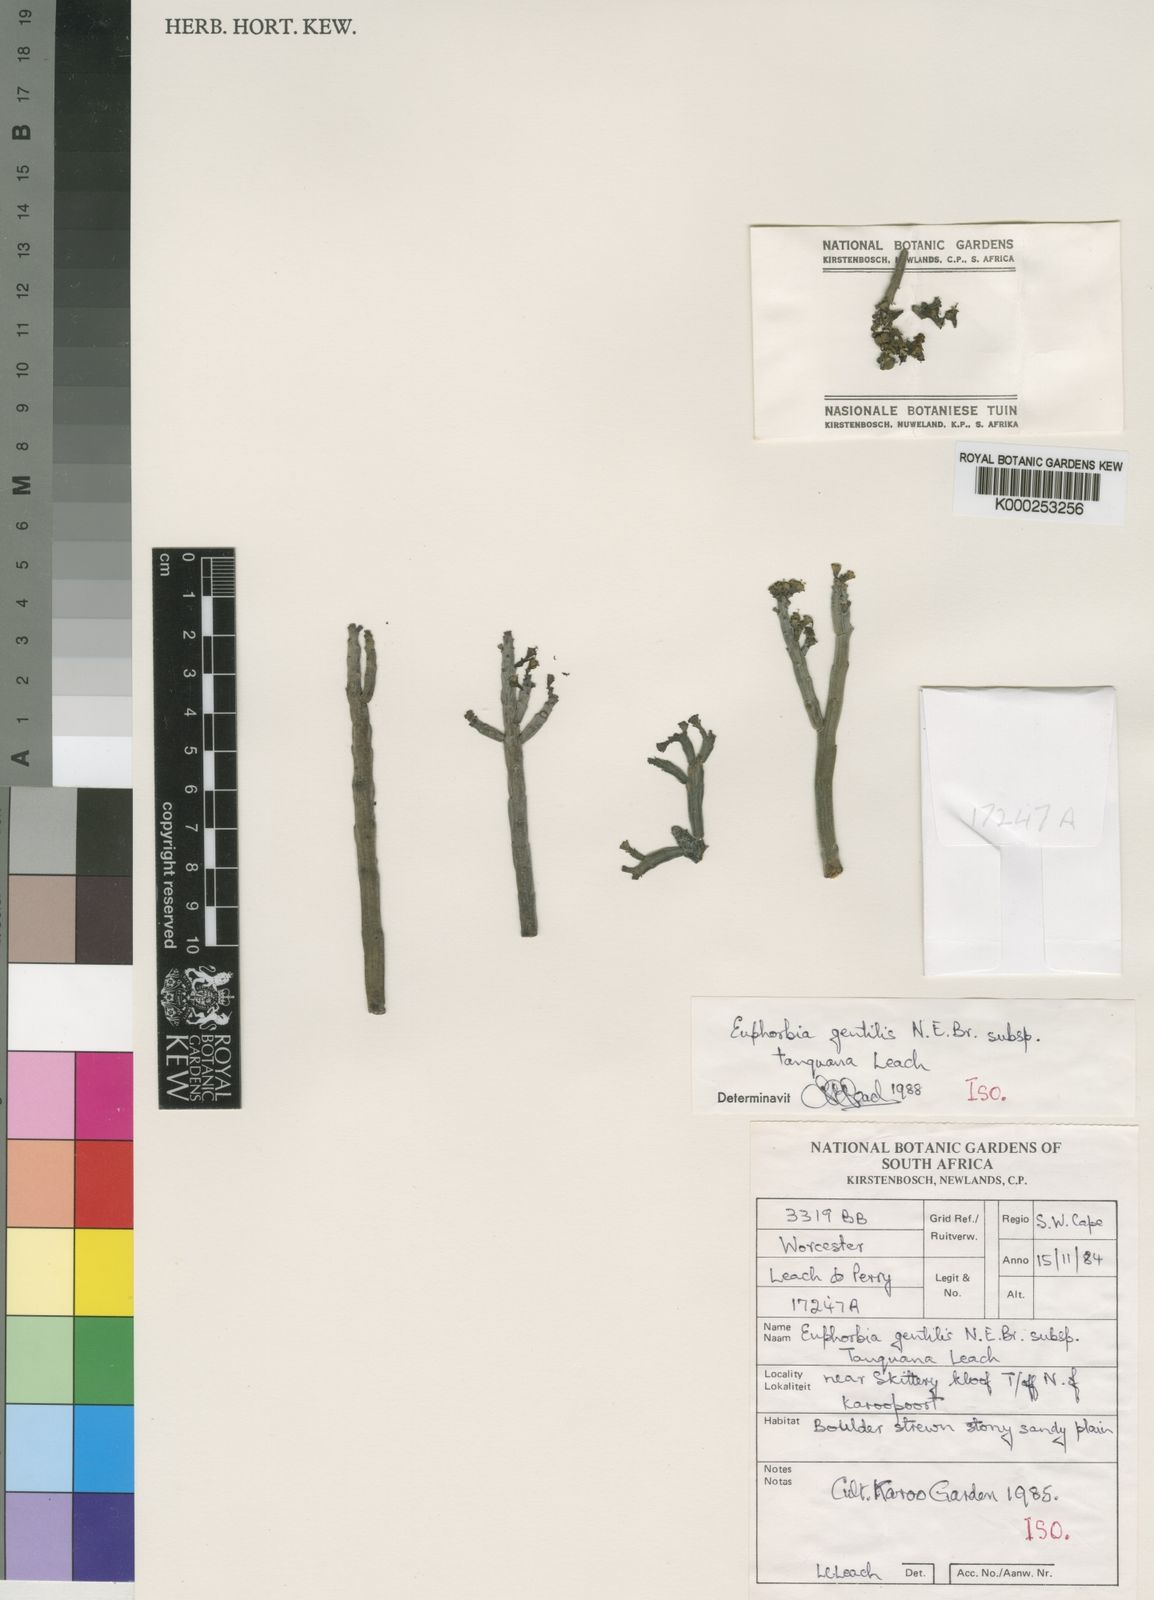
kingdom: Plantae
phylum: Tracheophyta
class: Magnoliopsida
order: Malpighiales
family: Euphorbiaceae
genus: Euphorbia
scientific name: Euphorbia gentilis
